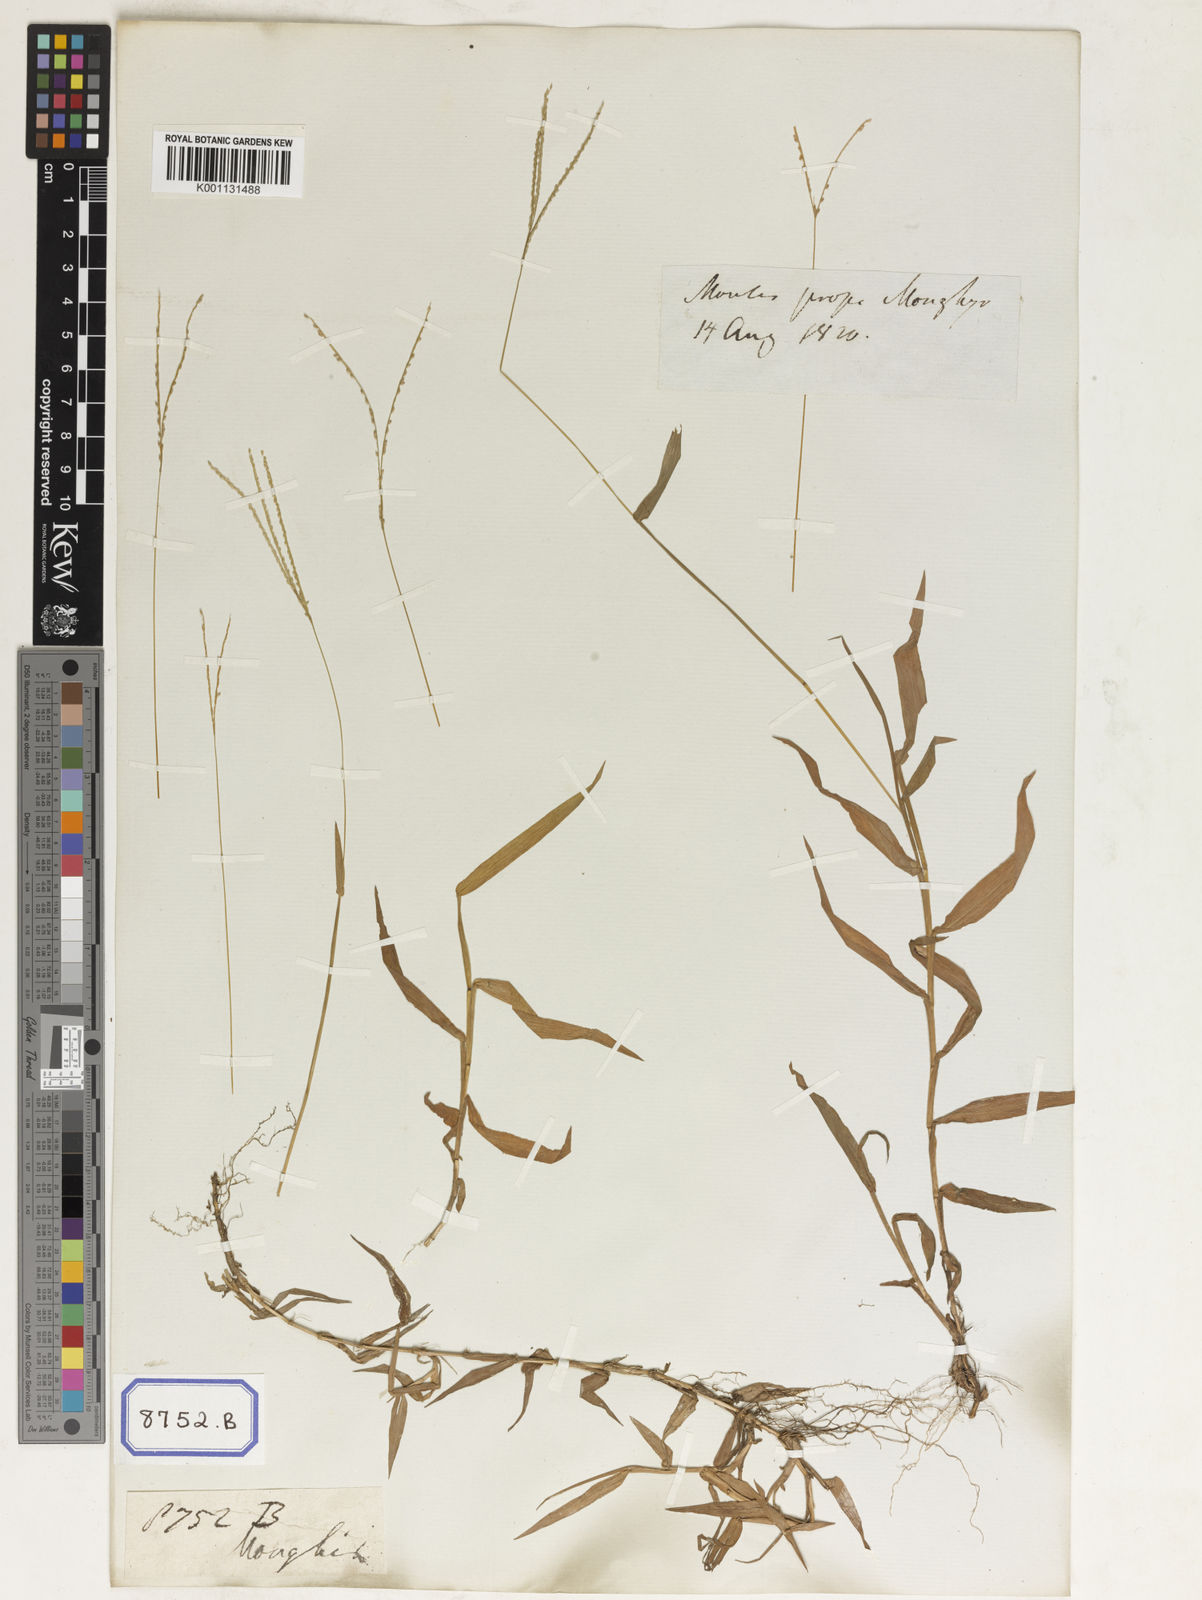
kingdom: Plantae
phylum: Tracheophyta
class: Liliopsida
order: Poales
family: Poaceae
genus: Paspalum
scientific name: Paspalum
